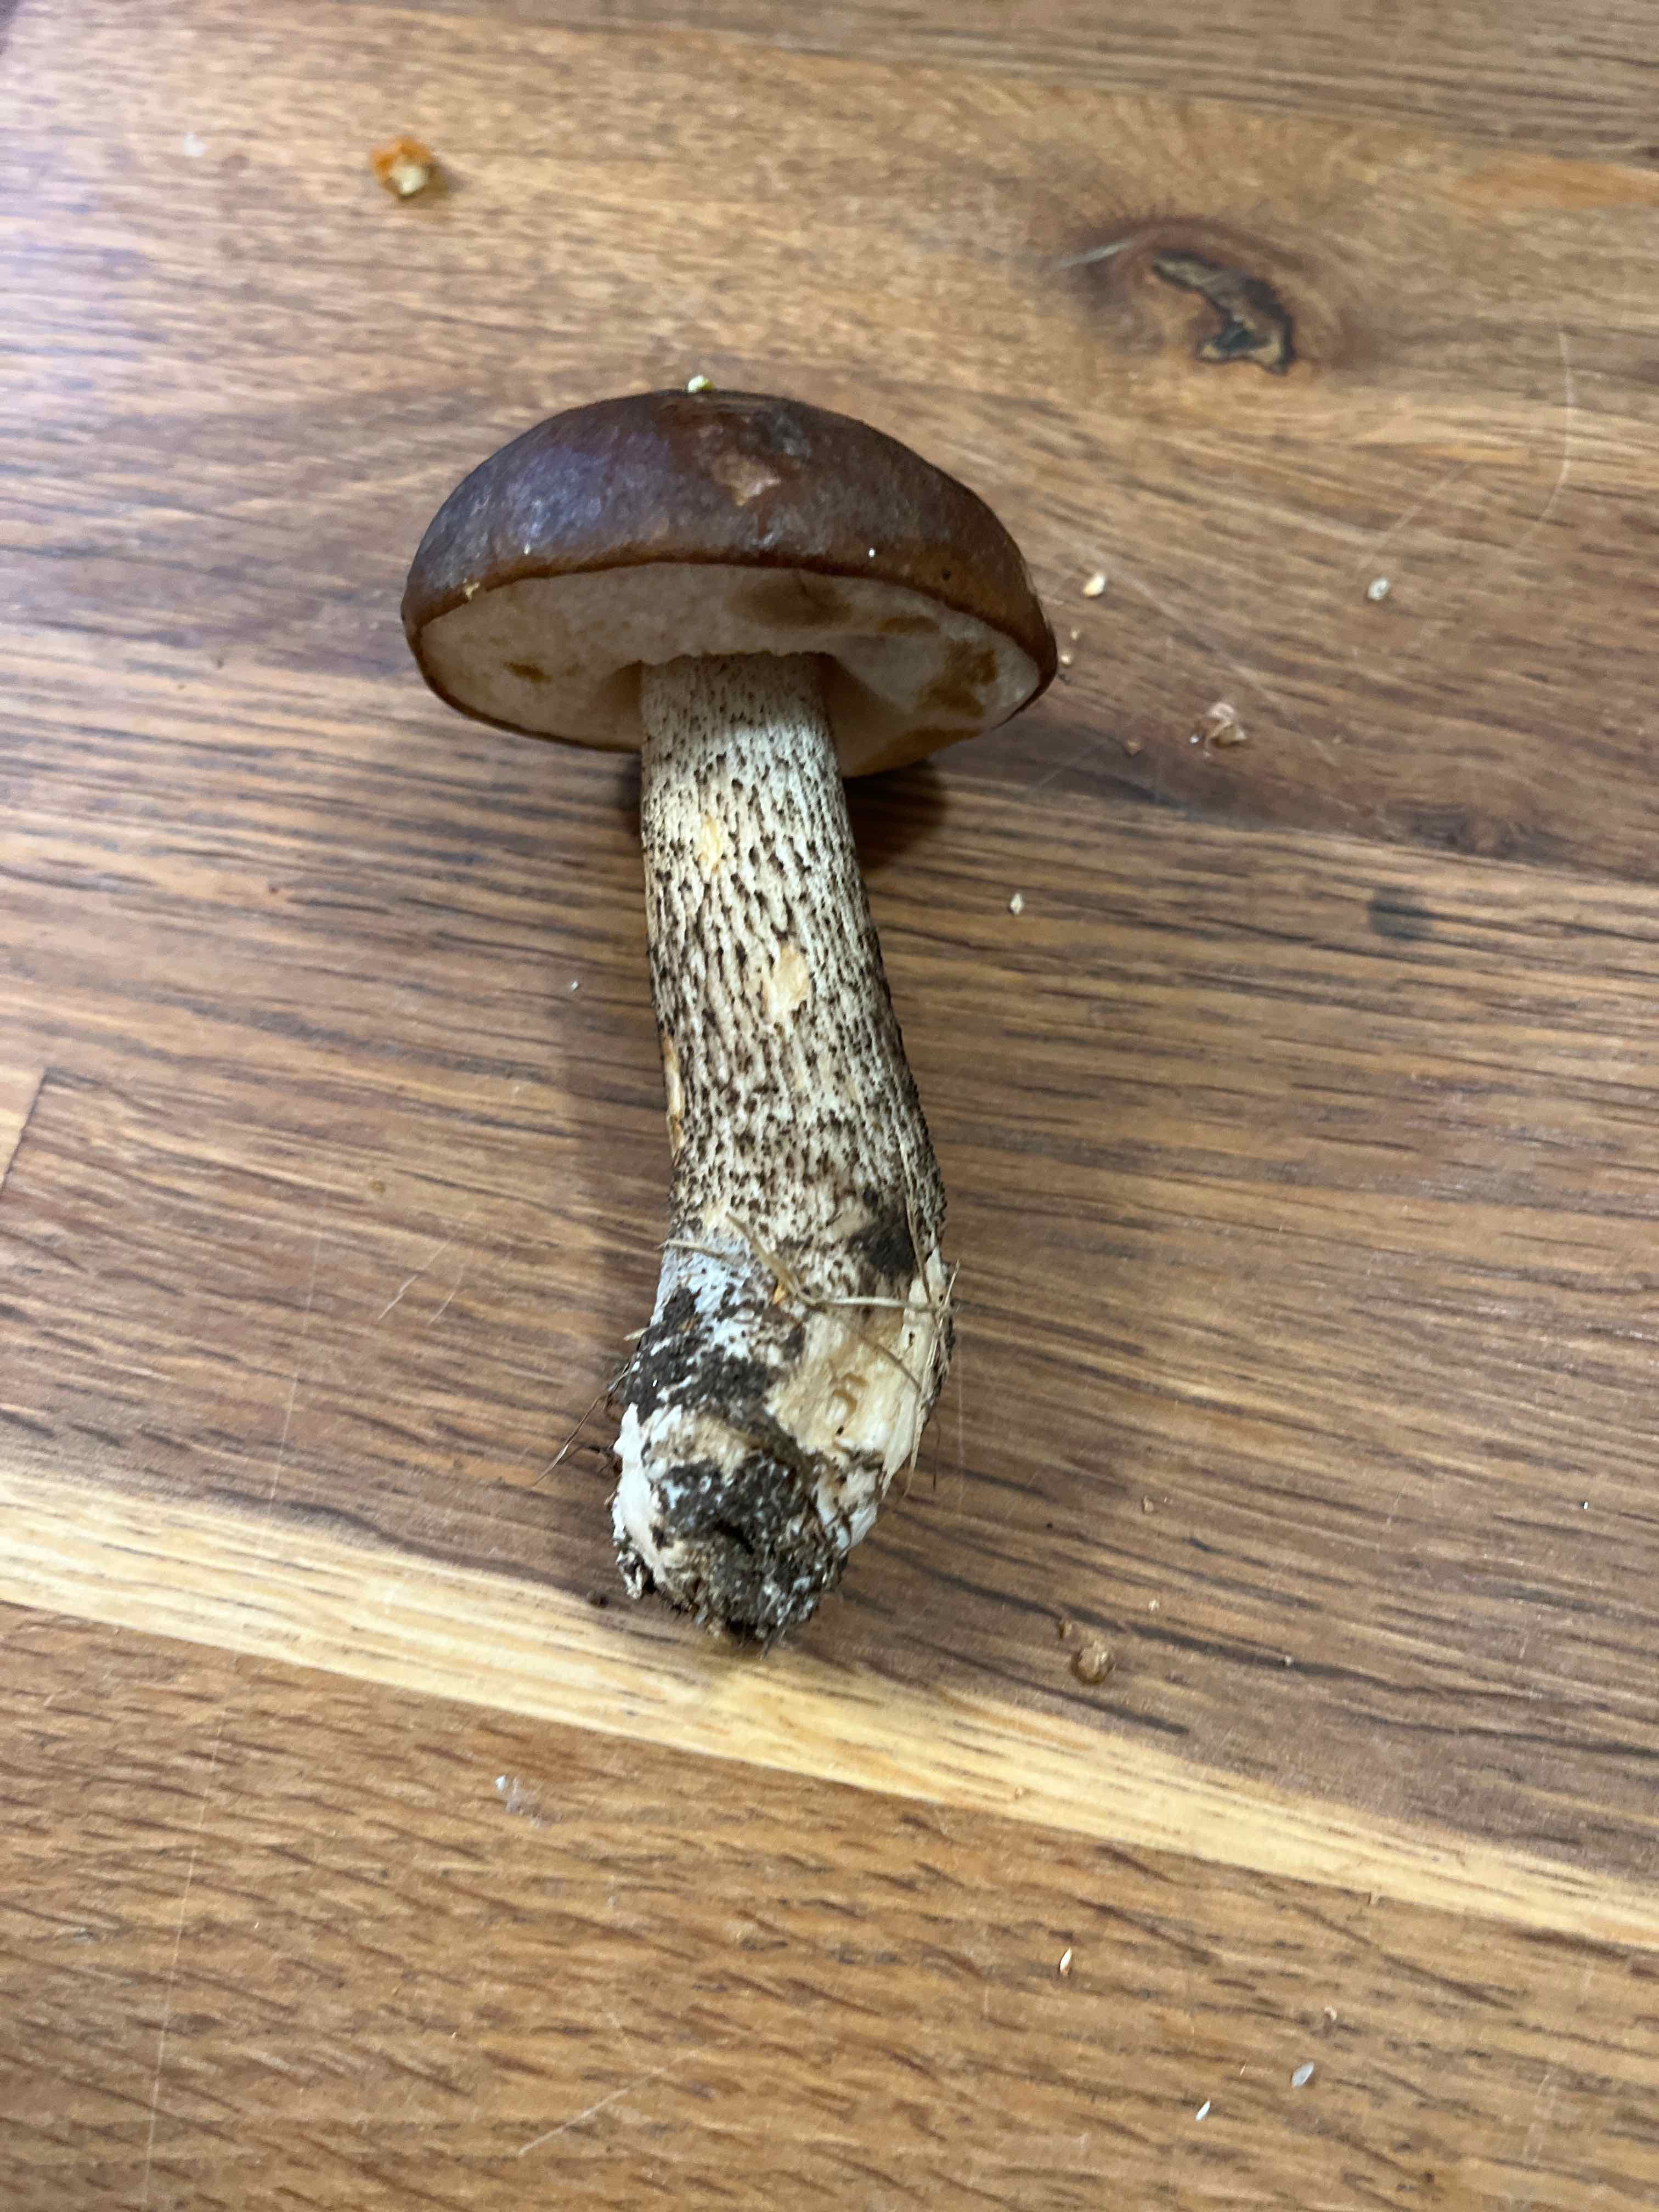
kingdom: Fungi
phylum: Basidiomycota
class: Agaricomycetes
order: Boletales
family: Boletaceae
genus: Leccinum
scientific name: Leccinum scabrum
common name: brun skælrørhat
